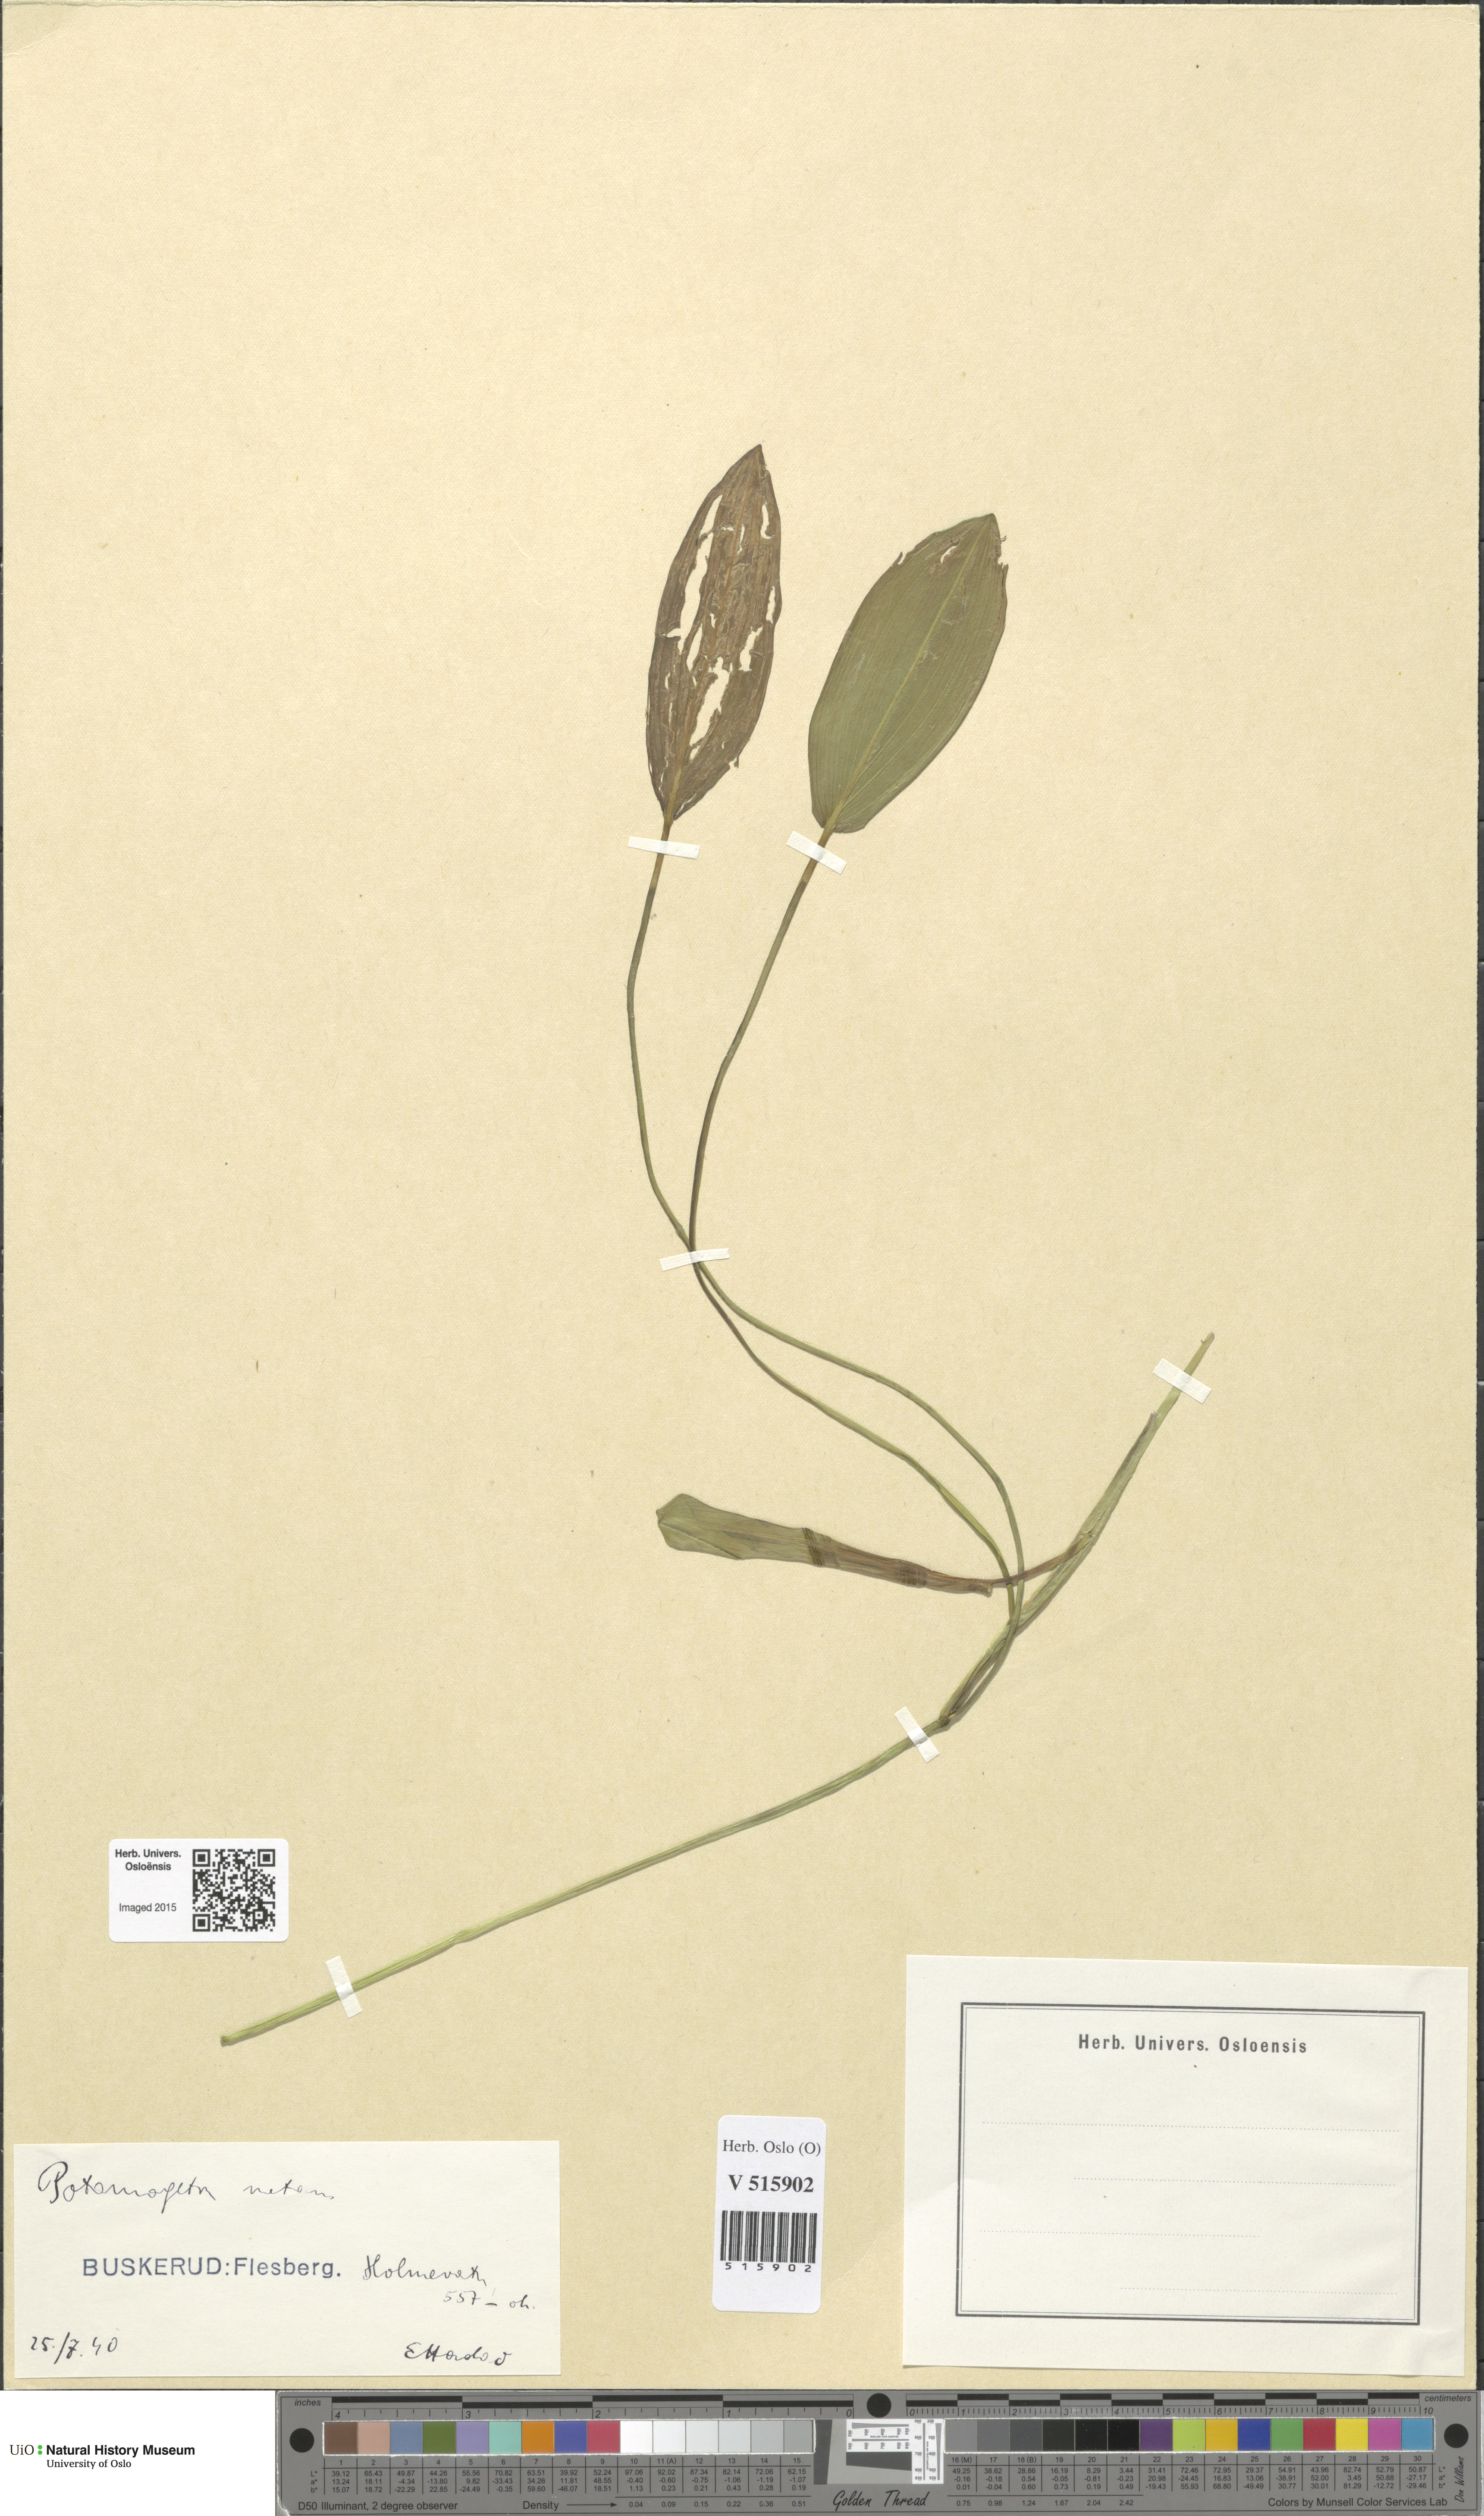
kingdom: Plantae
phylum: Tracheophyta
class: Liliopsida
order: Alismatales
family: Potamogetonaceae
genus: Potamogeton
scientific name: Potamogeton natans
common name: Broad-leaved pondweed
